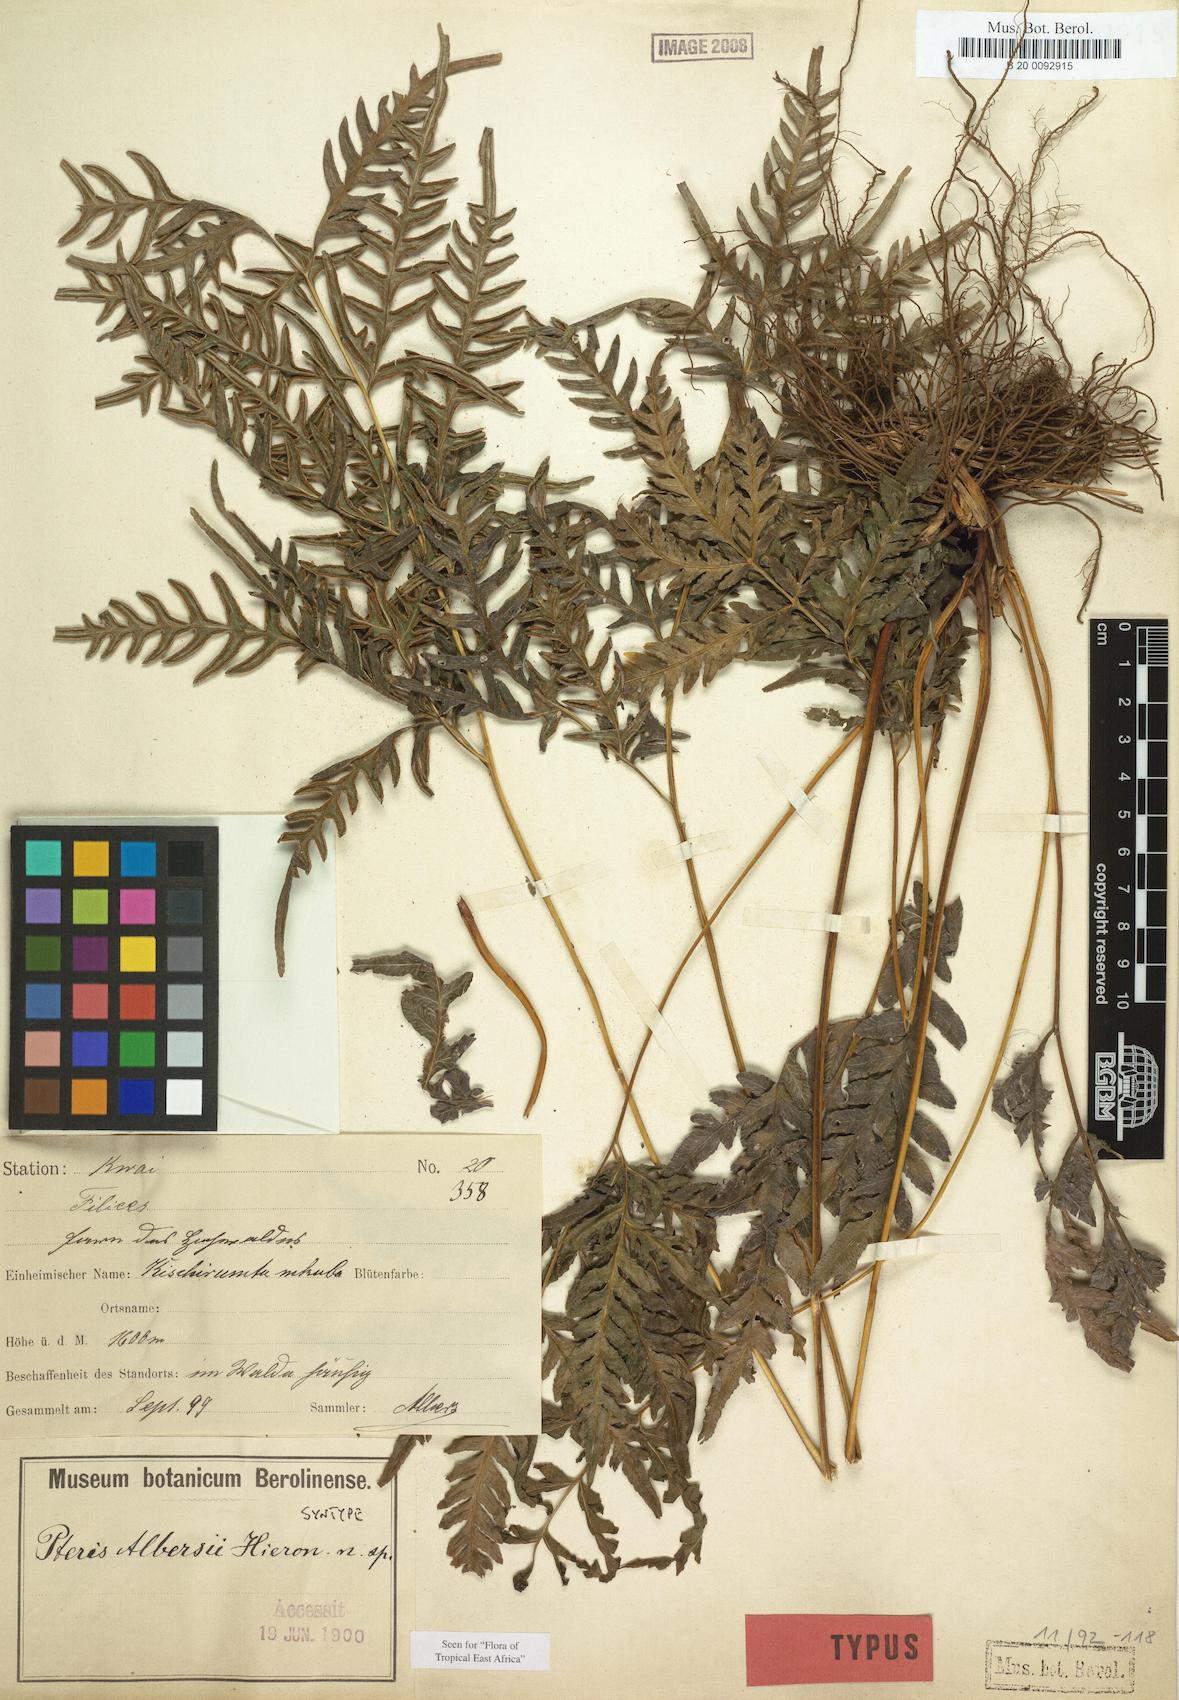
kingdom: Plantae
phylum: Tracheophyta
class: Polypodiopsida
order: Polypodiales
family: Pteridaceae
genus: Pteris
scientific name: Pteris albersii
